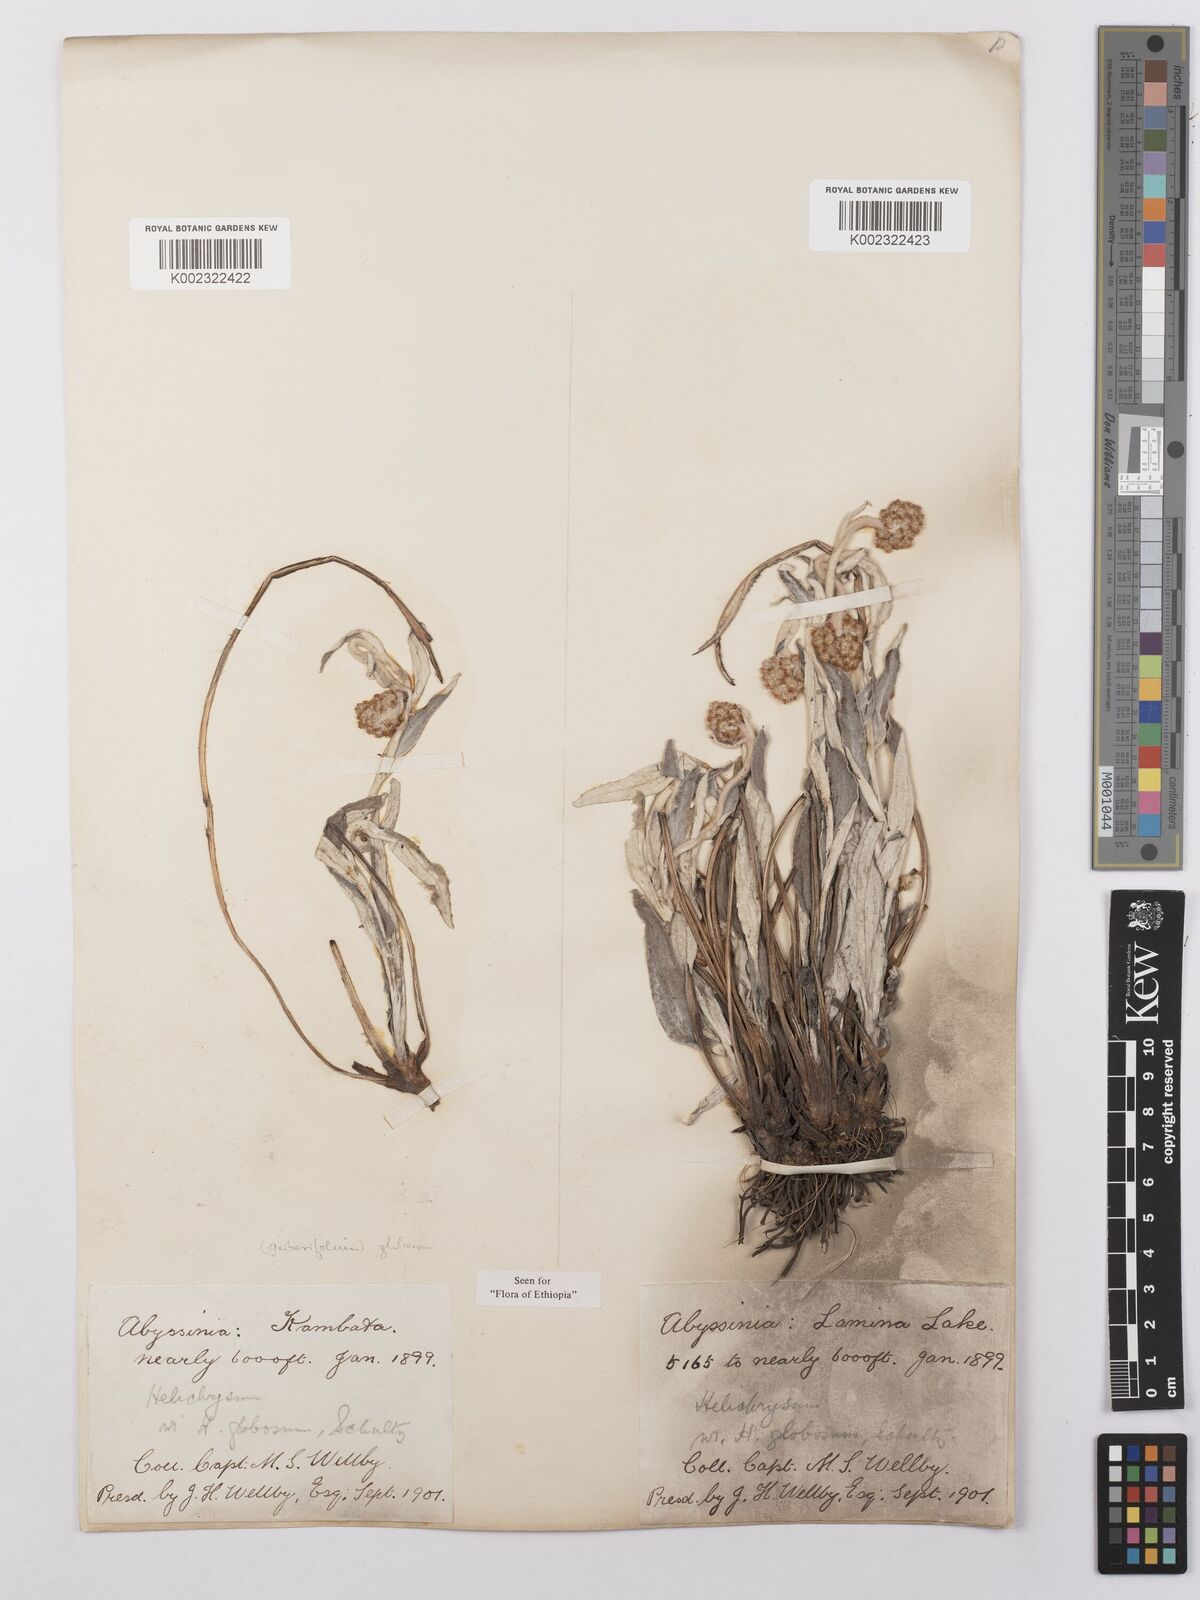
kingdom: Plantae
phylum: Tracheophyta
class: Magnoliopsida
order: Asterales
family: Asteraceae
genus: Helichrysum
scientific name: Helichrysum globosum
